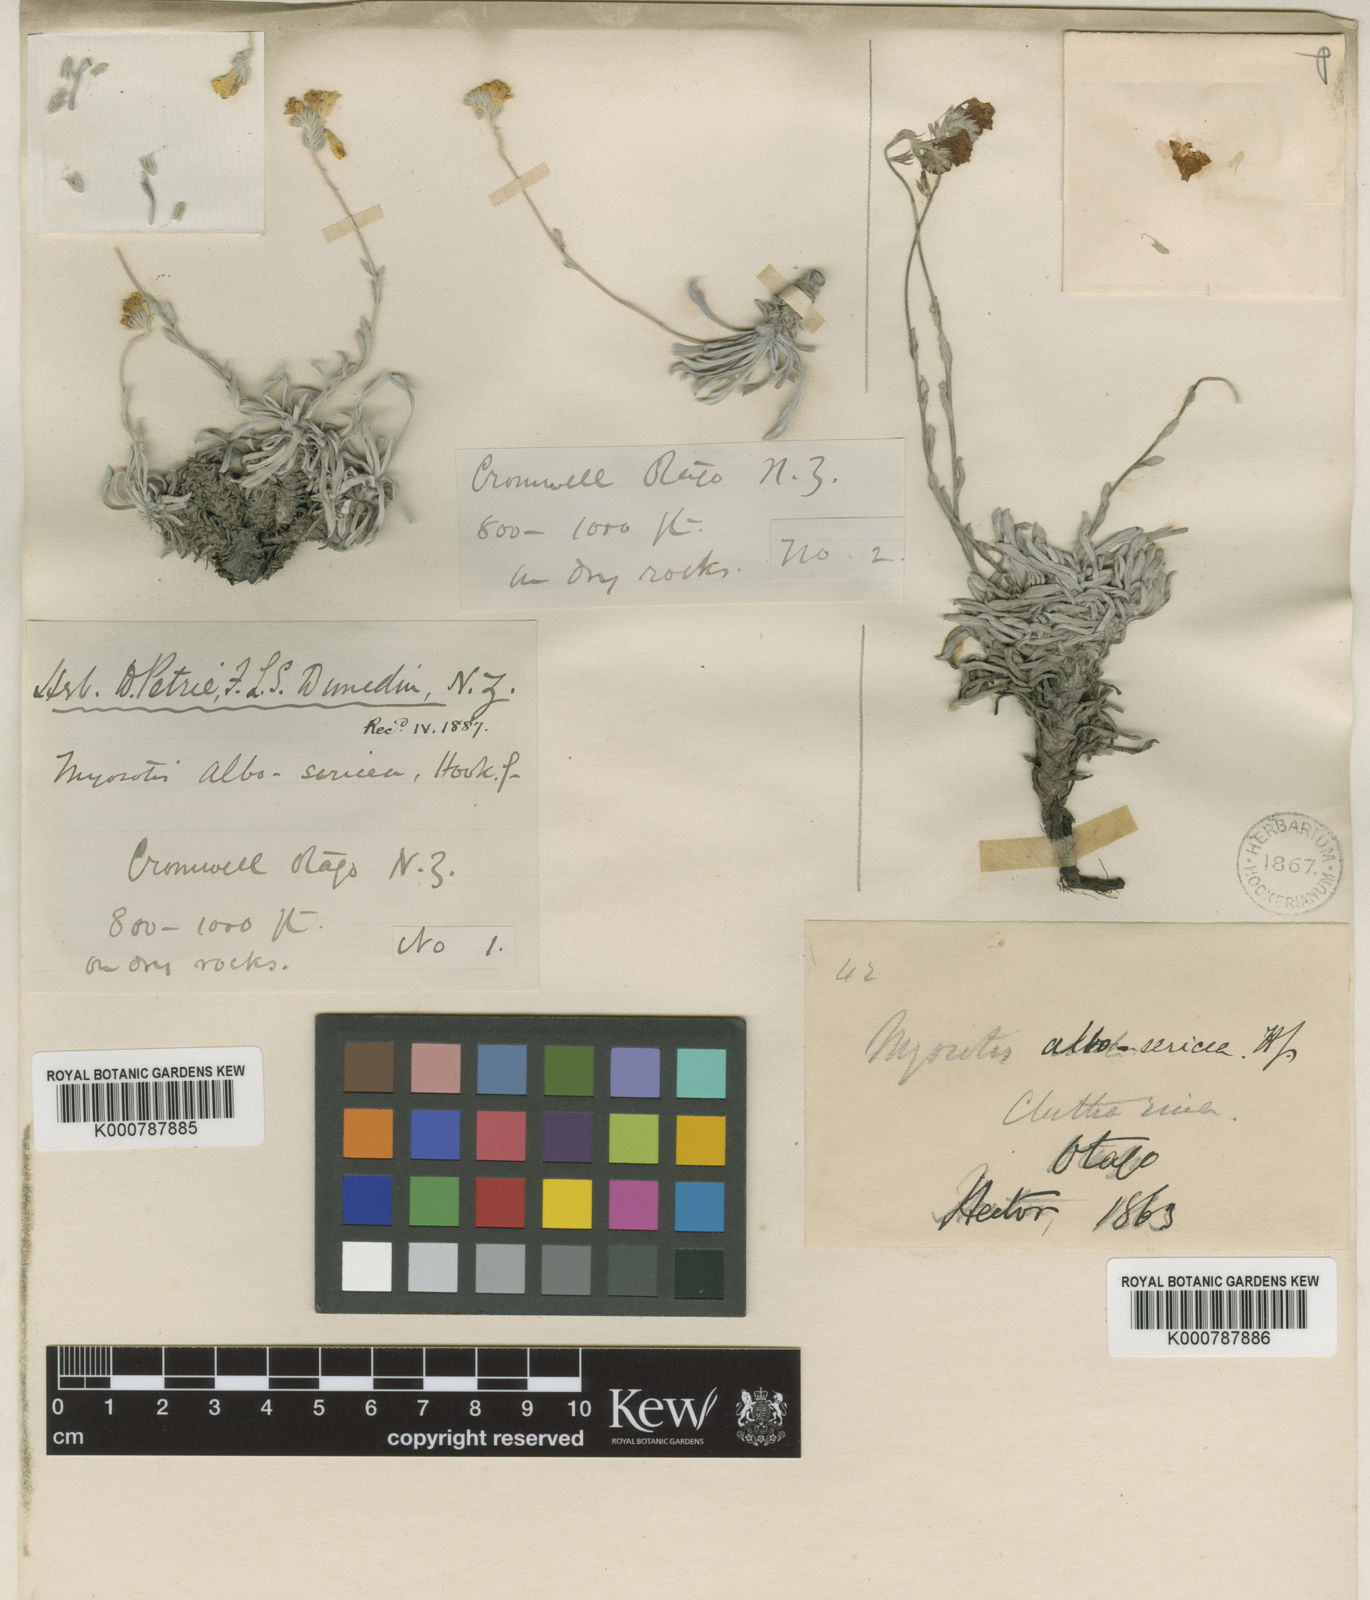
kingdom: Plantae
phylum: Tracheophyta
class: Magnoliopsida
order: Boraginales
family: Boraginaceae
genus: Myosotis
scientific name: Myosotis albosericea
